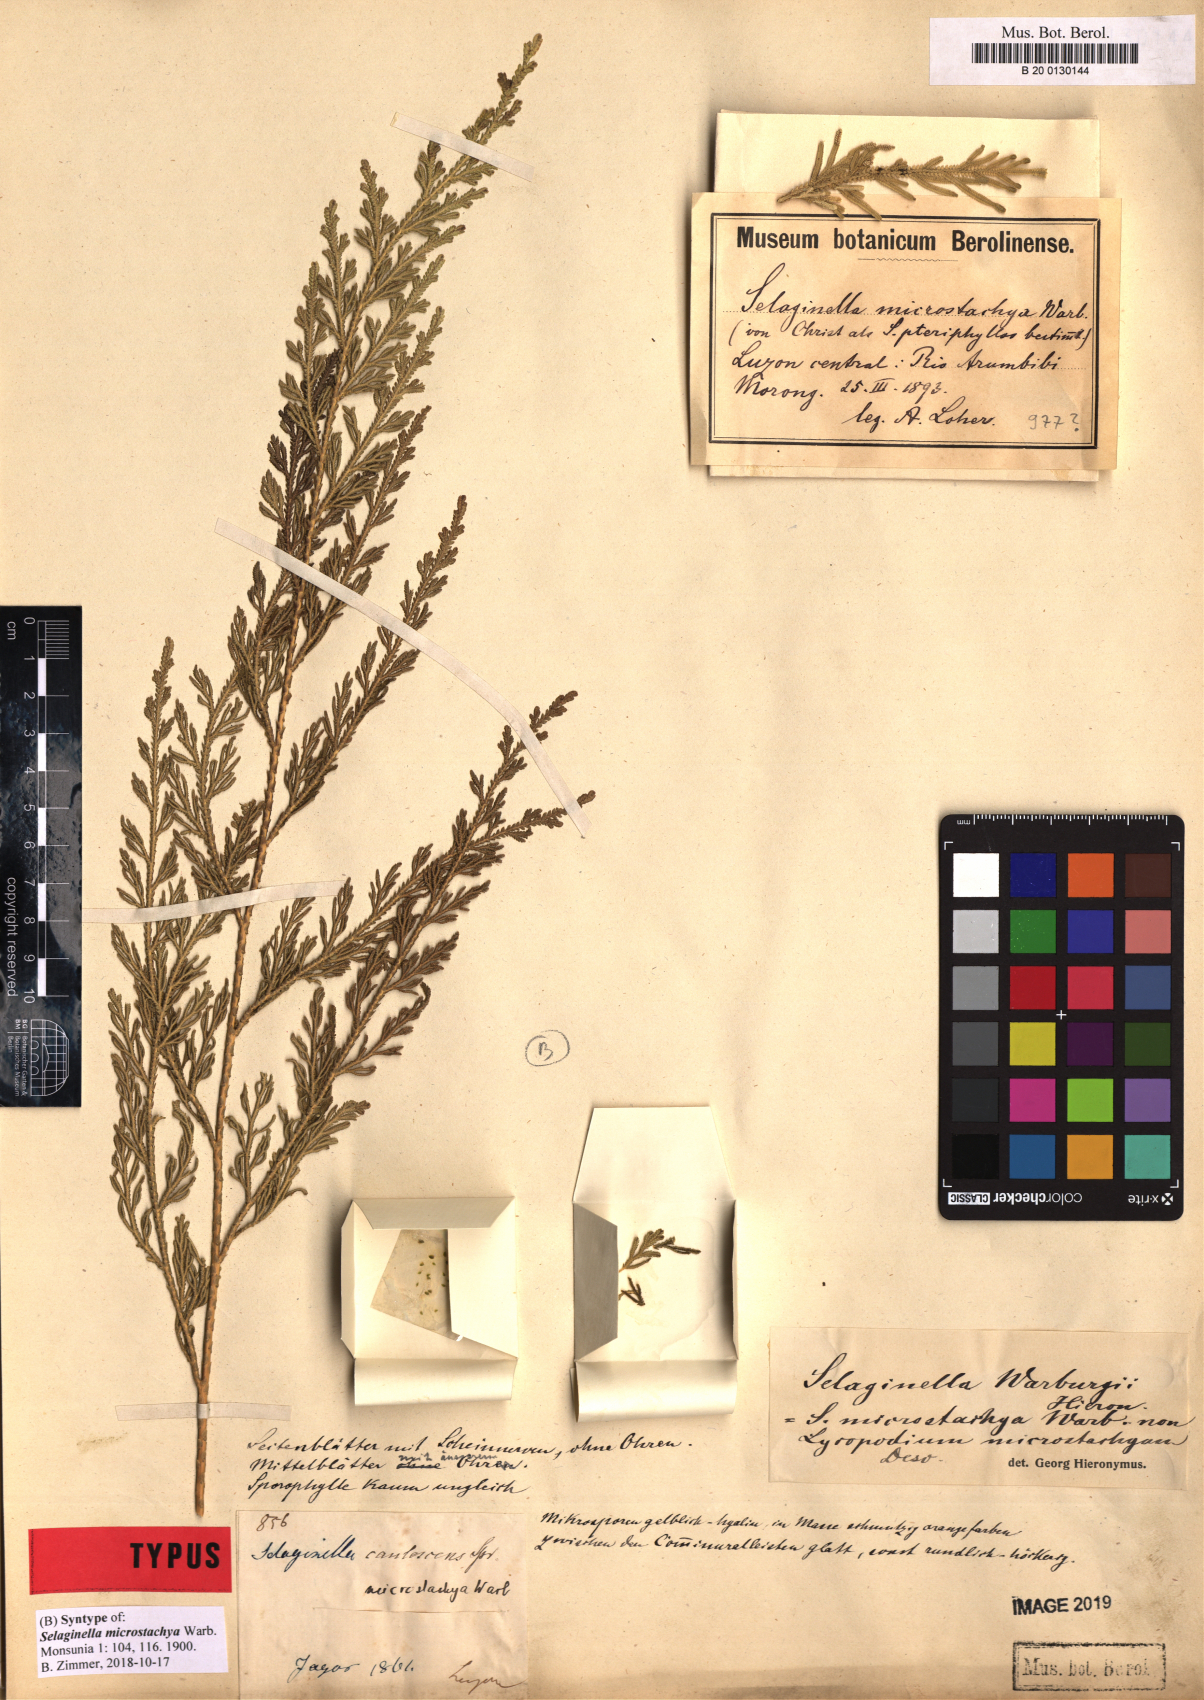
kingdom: Plantae
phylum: Tracheophyta
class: Lycopodiopsida
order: Selaginellales
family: Selaginellaceae
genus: Selaginella
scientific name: Selaginella involvens
